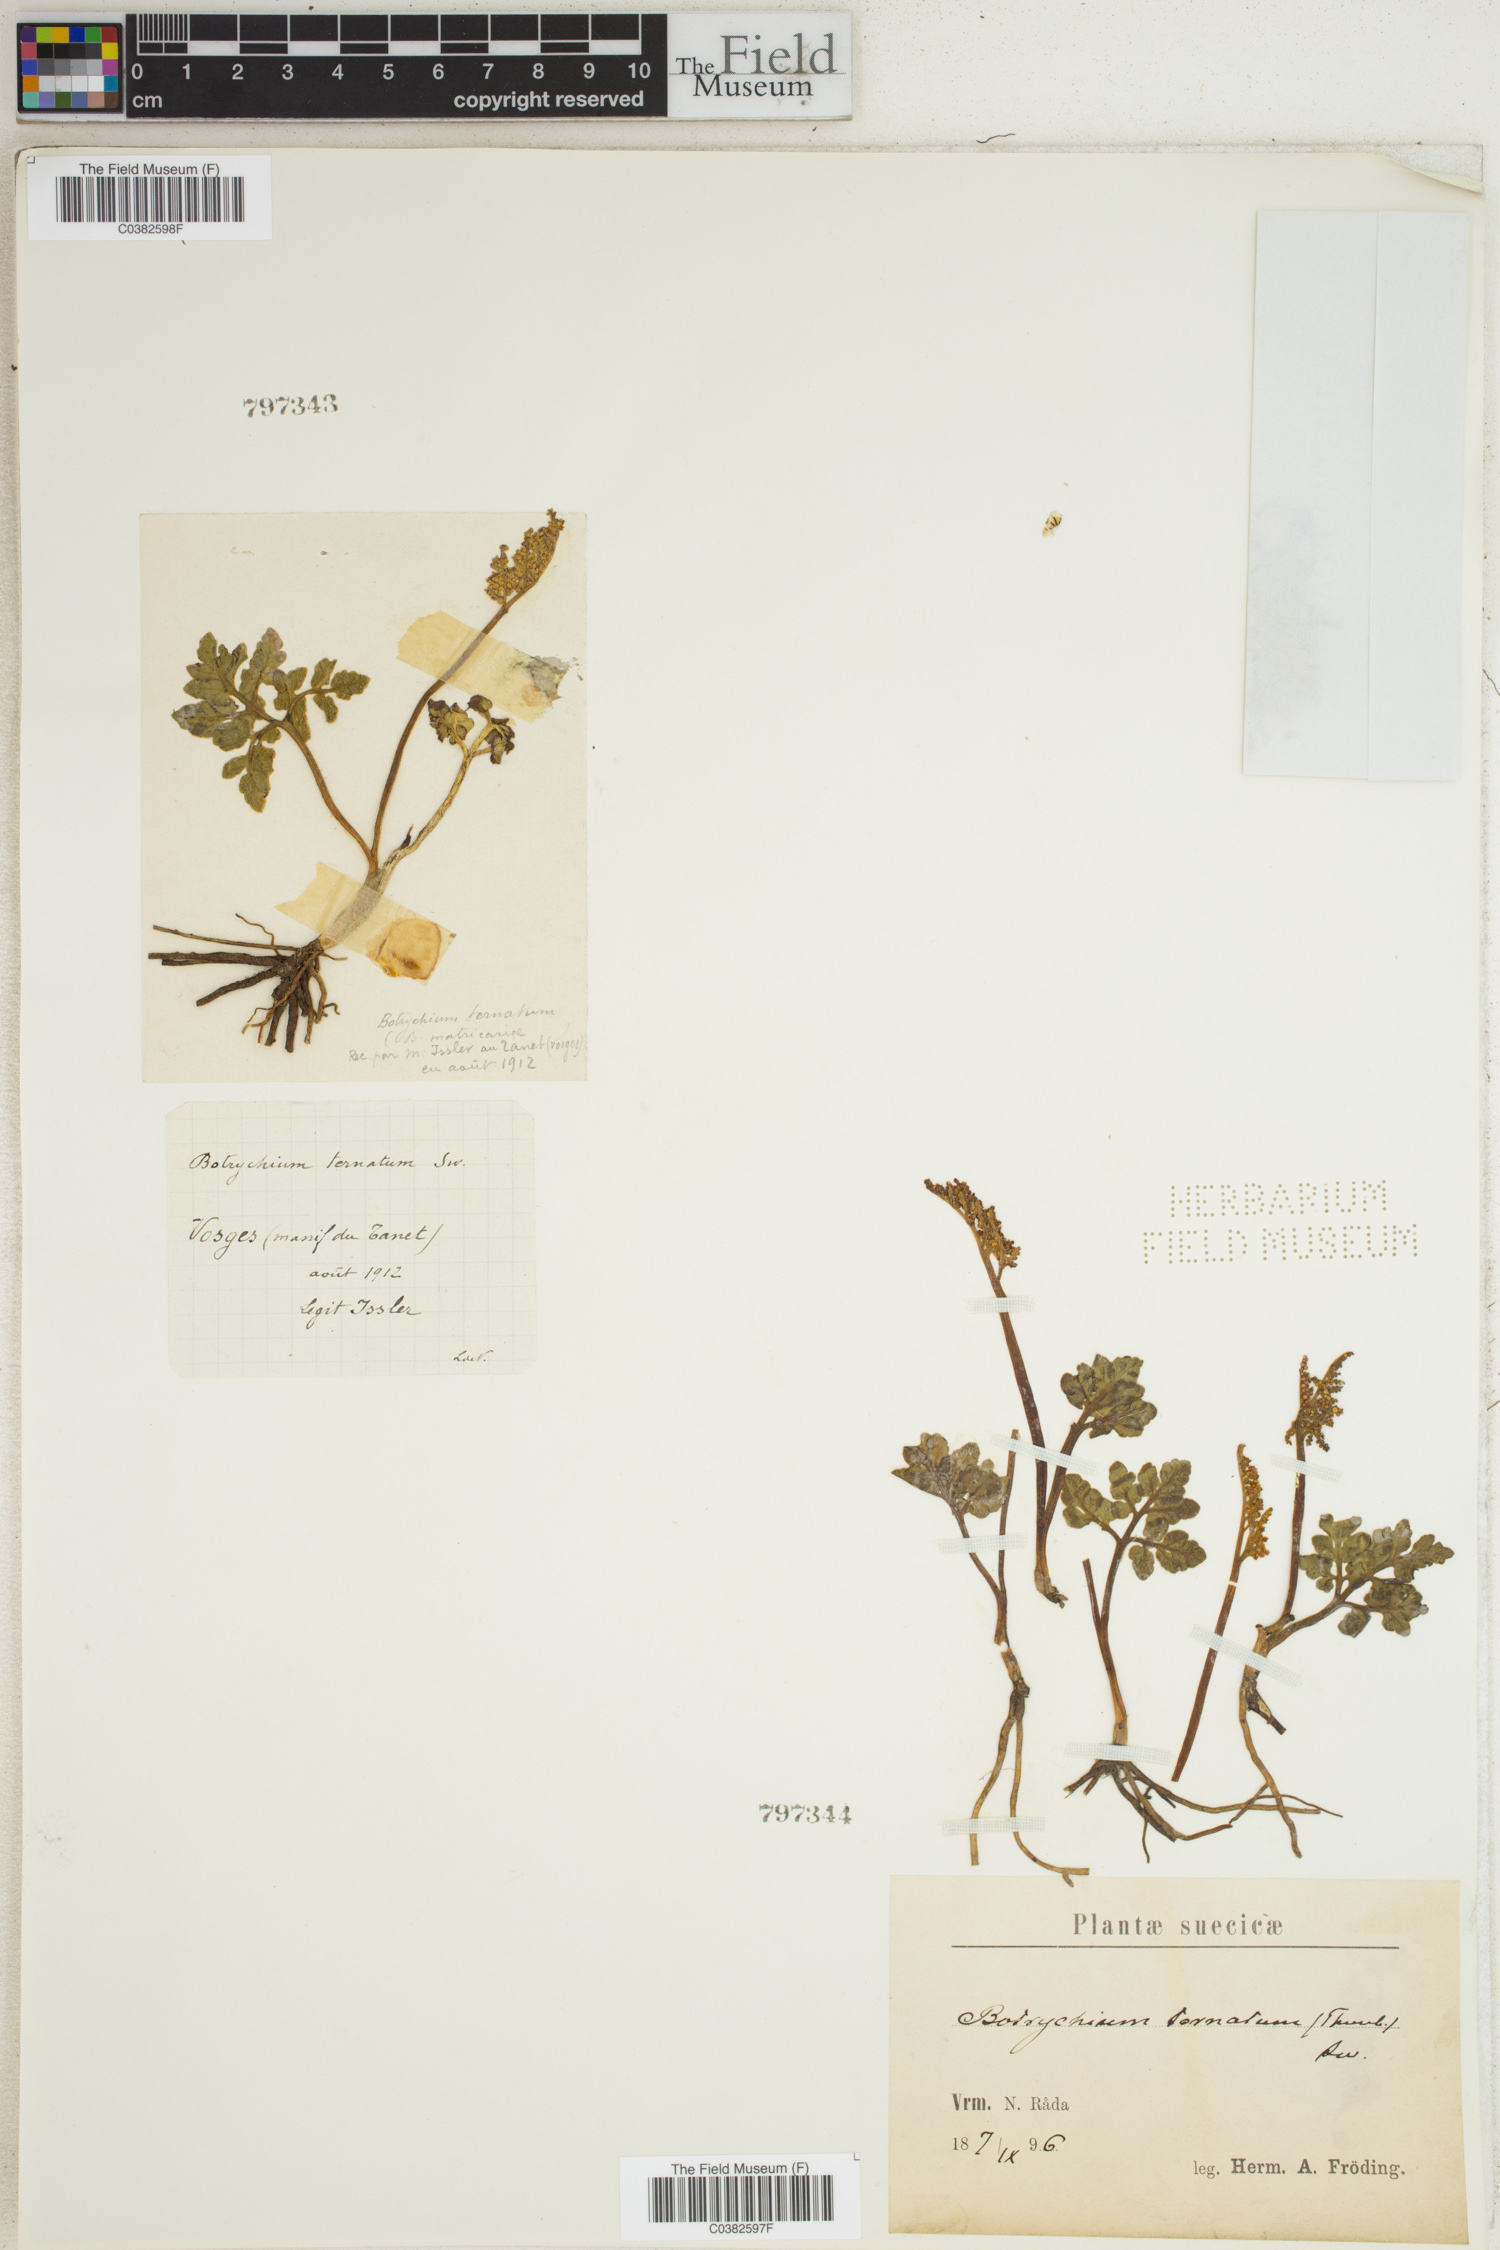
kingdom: Plantae
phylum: Tracheophyta
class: Polypodiopsida
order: Ophioglossales
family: Ophioglossaceae
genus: Sceptridium
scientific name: Sceptridium ternatum
